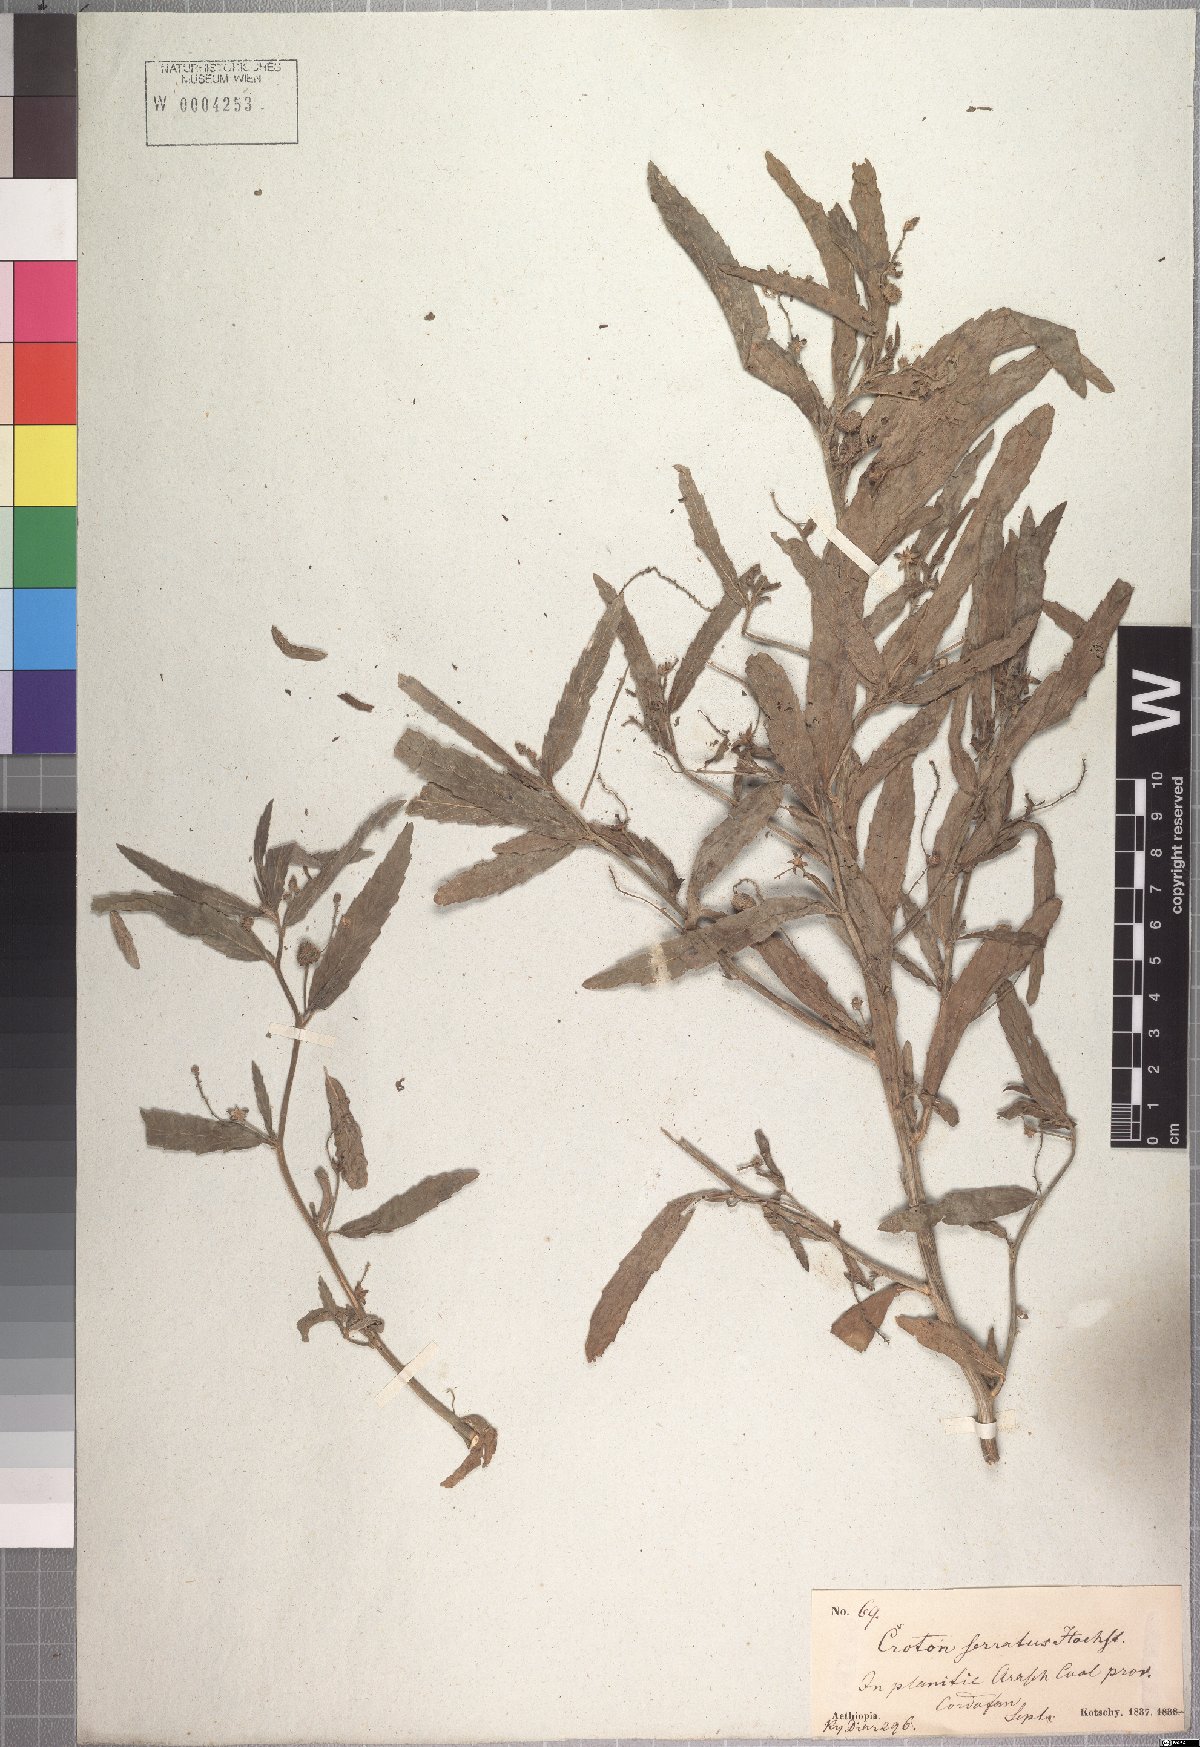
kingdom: Plantae
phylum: Tracheophyta
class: Magnoliopsida
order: Malpighiales
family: Euphorbiaceae
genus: Caperonia
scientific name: Caperonia serrata
